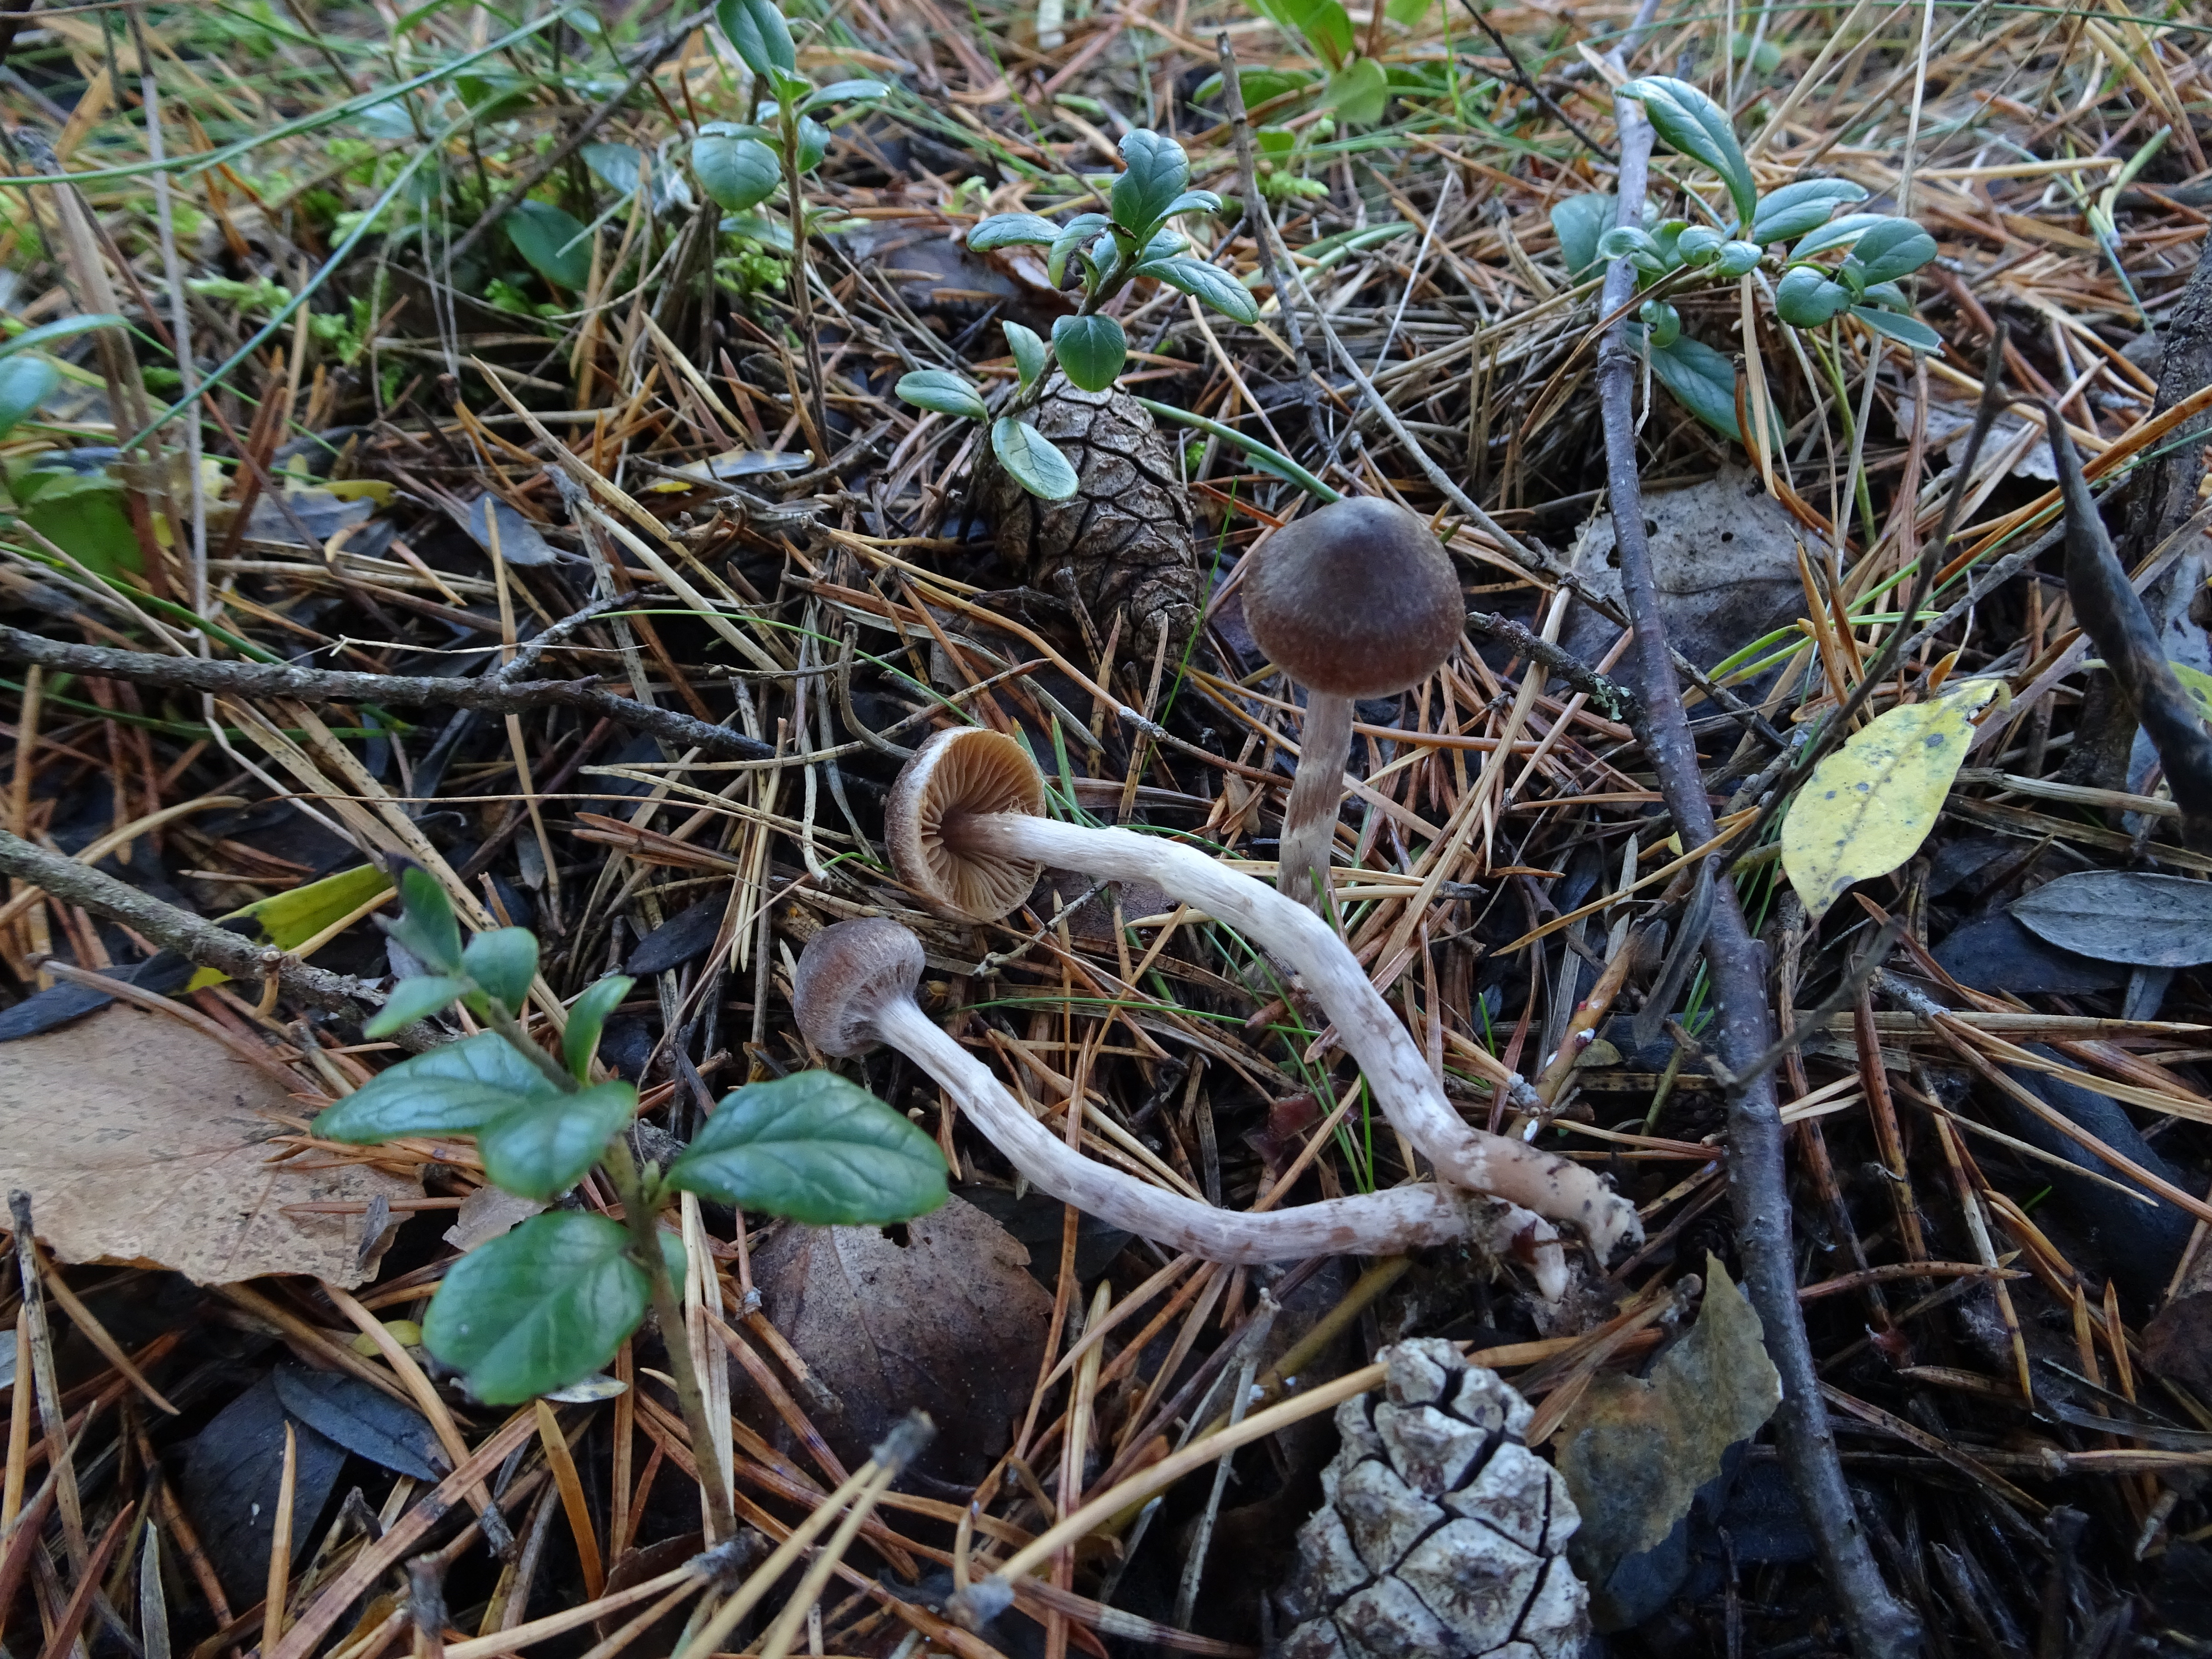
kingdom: Fungi
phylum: Basidiomycota
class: Agaricomycetes
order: Agaricales
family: Cortinariaceae
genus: Cortinarius
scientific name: Cortinarius
